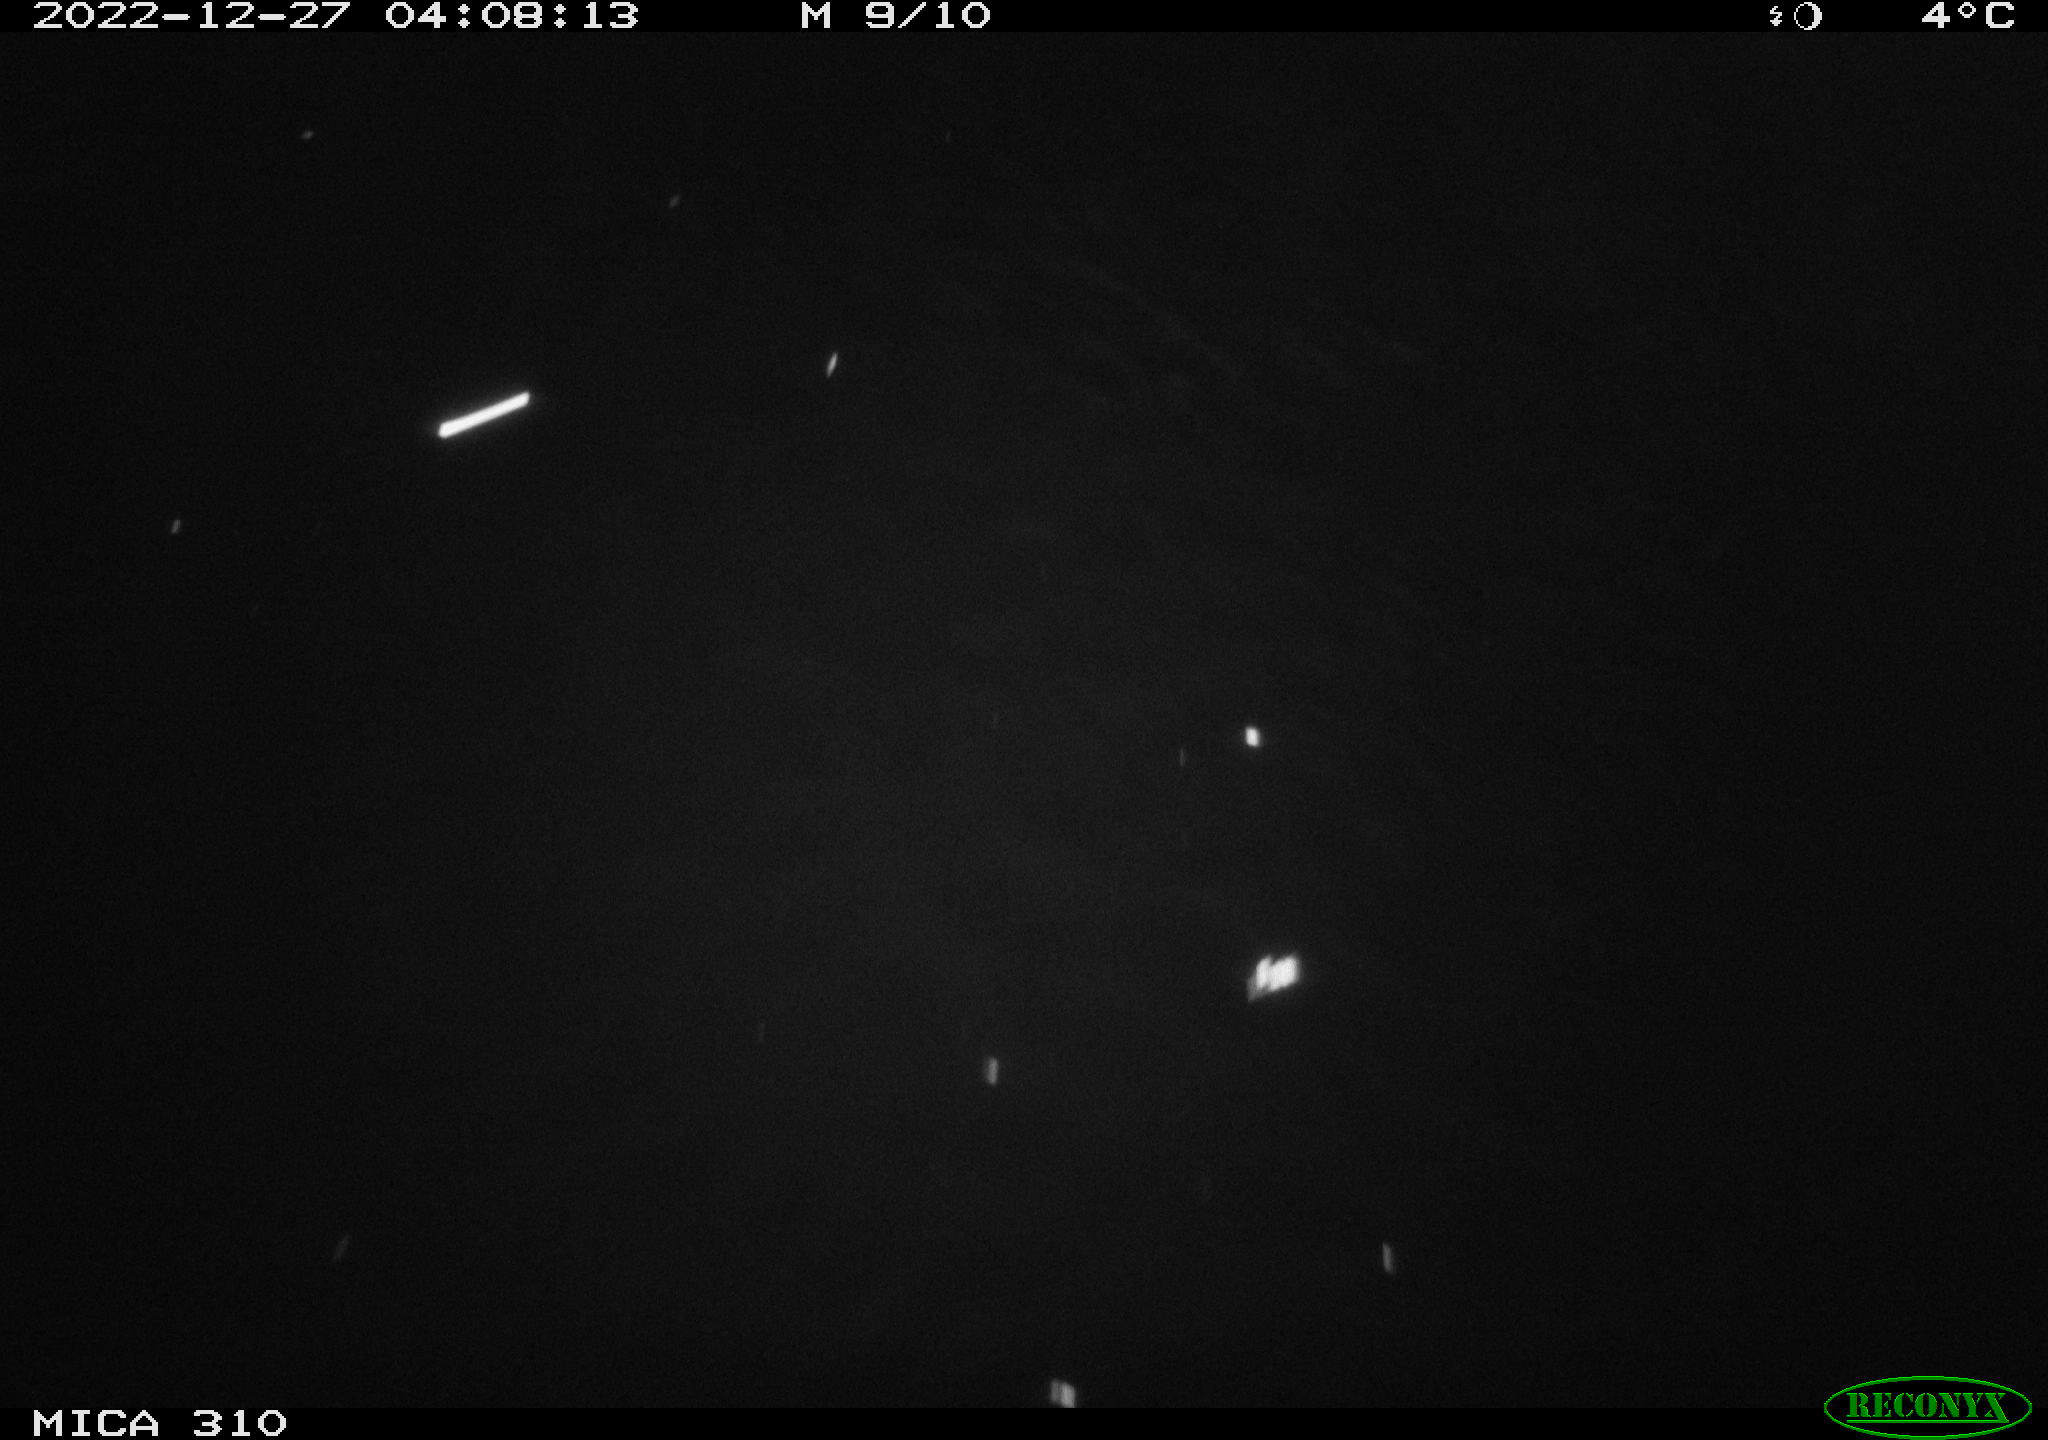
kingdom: Animalia
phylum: Chordata
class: Mammalia
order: Rodentia
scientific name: Rodentia
